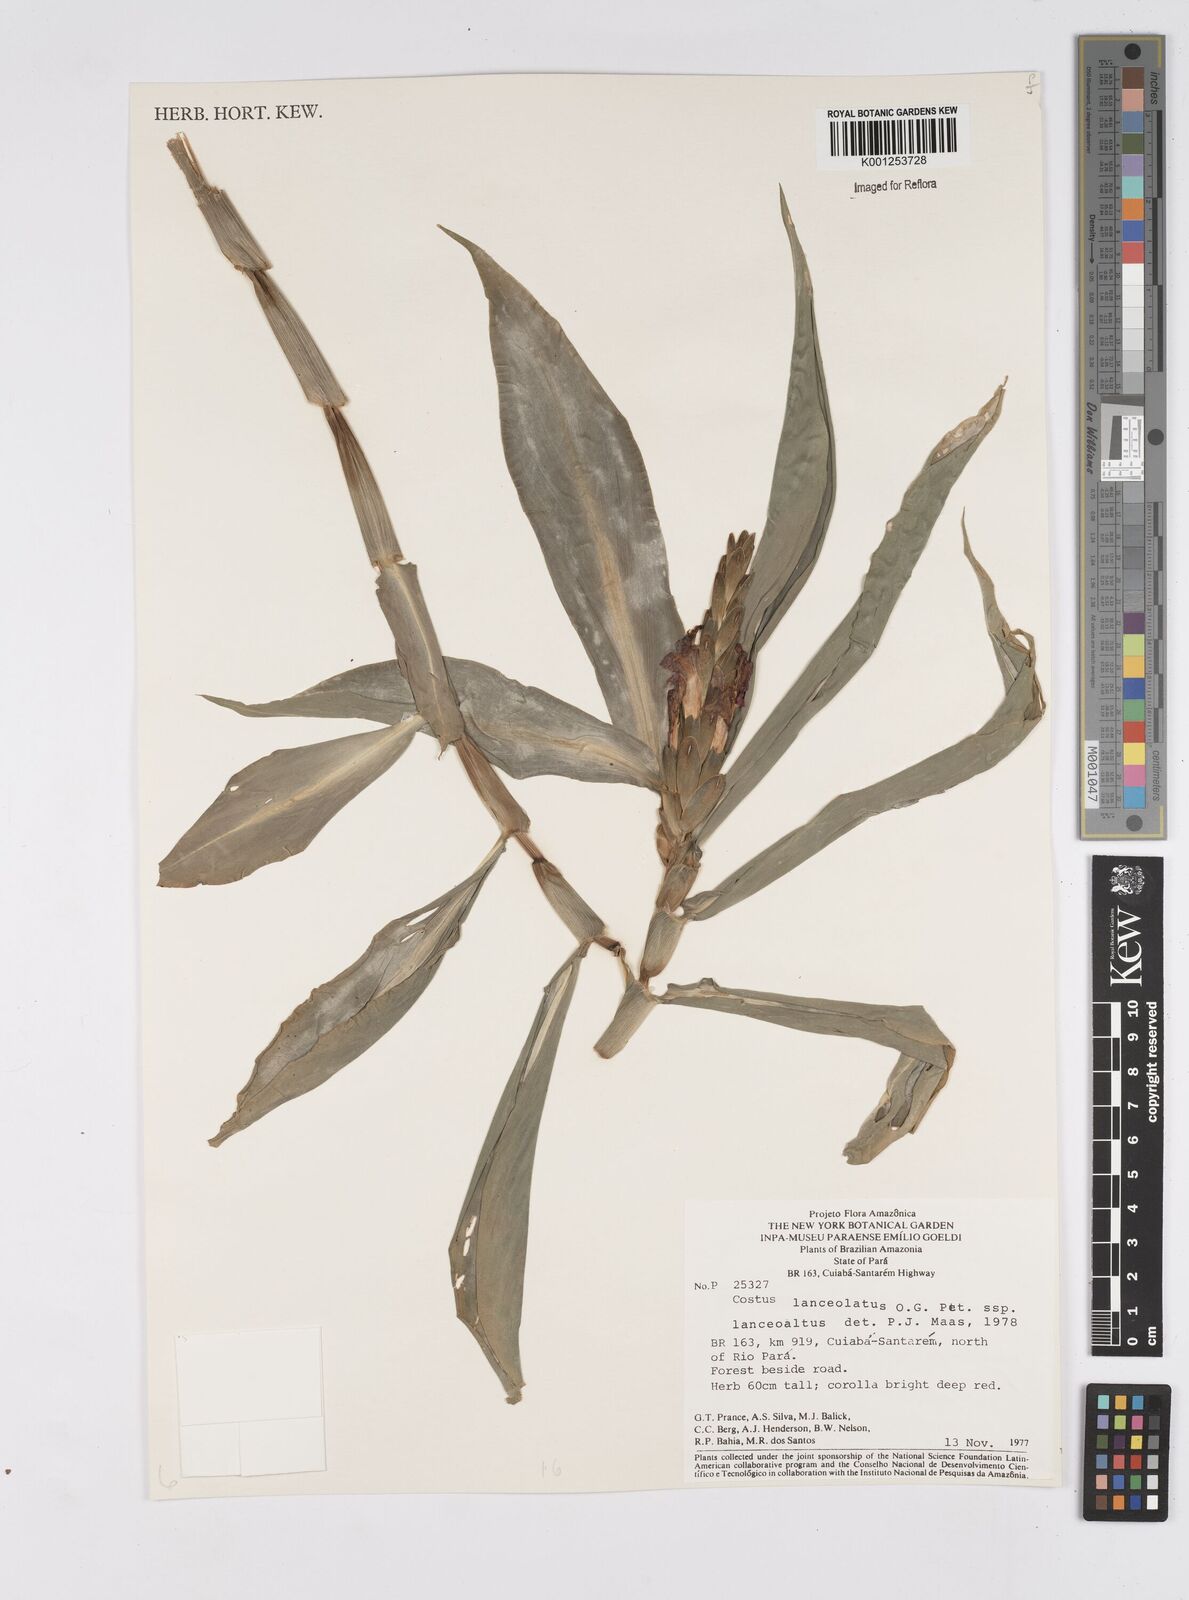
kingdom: Plantae
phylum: Tracheophyta
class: Liliopsida
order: Zingiberales
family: Costaceae
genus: Chamaecostus
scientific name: Chamaecostus lanceolatus
